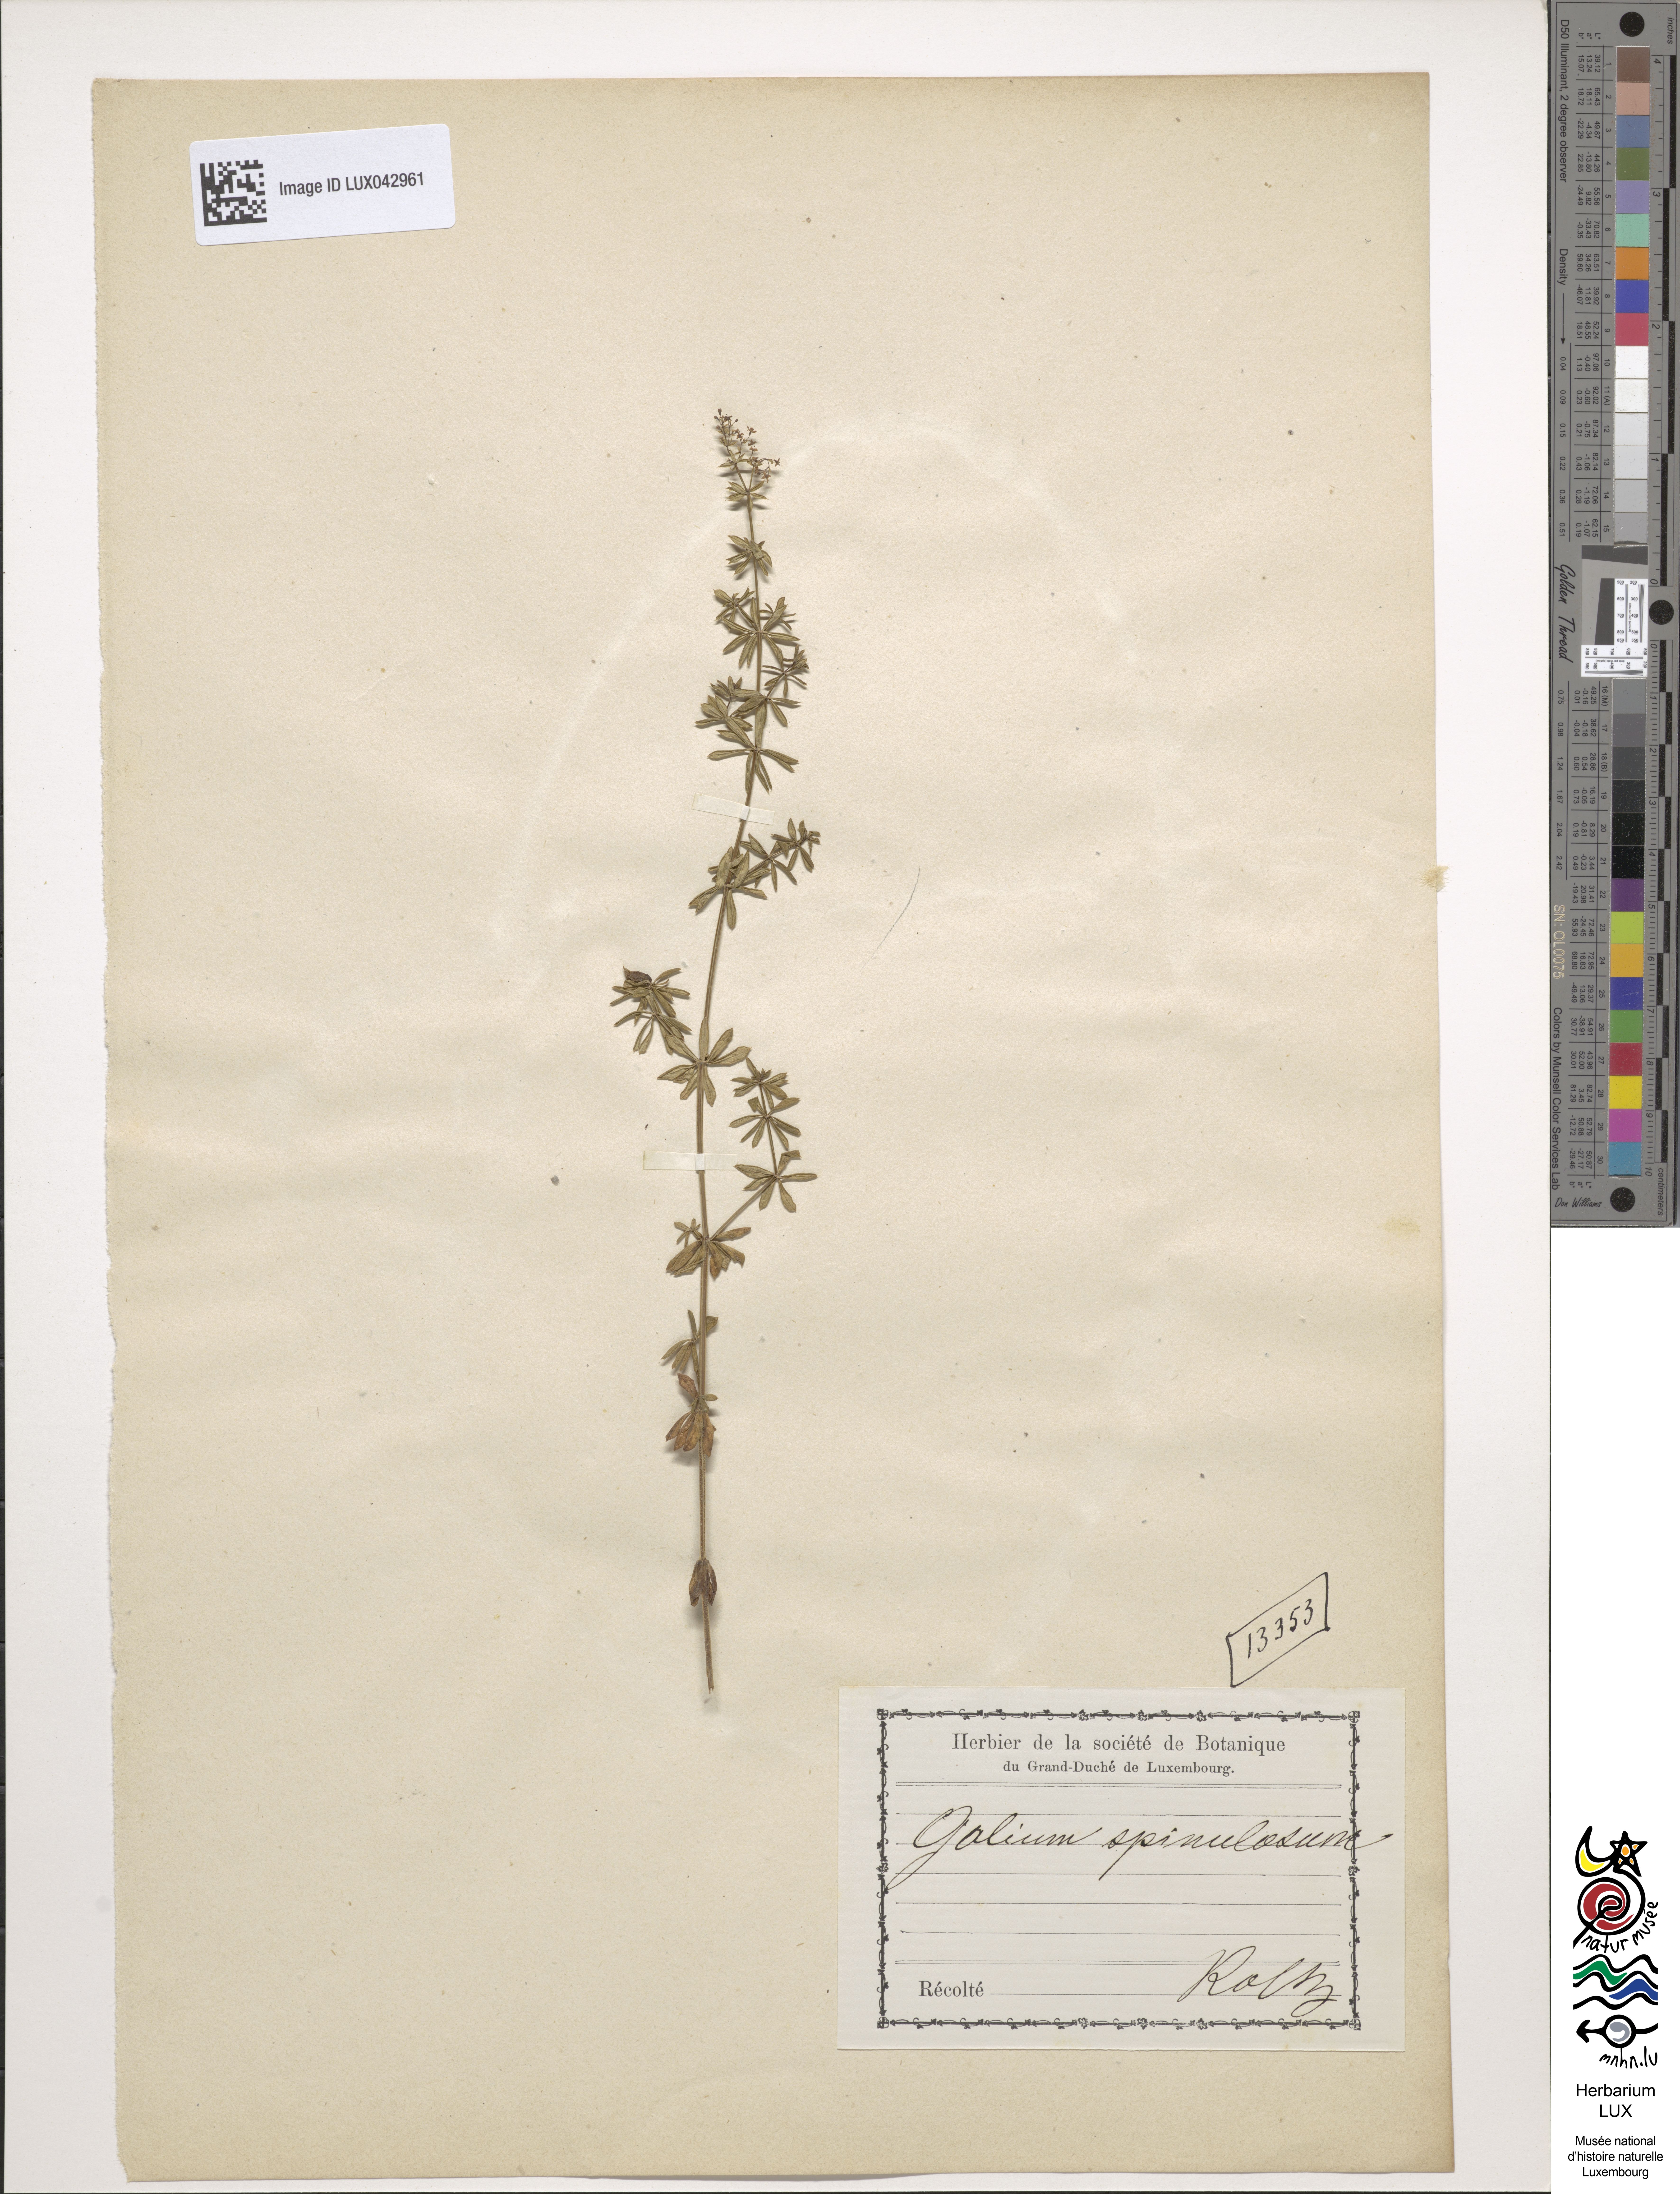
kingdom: Plantae
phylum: Tracheophyta
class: Magnoliopsida
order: Gentianales
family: Rubiaceae
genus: Galium
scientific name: Galium
